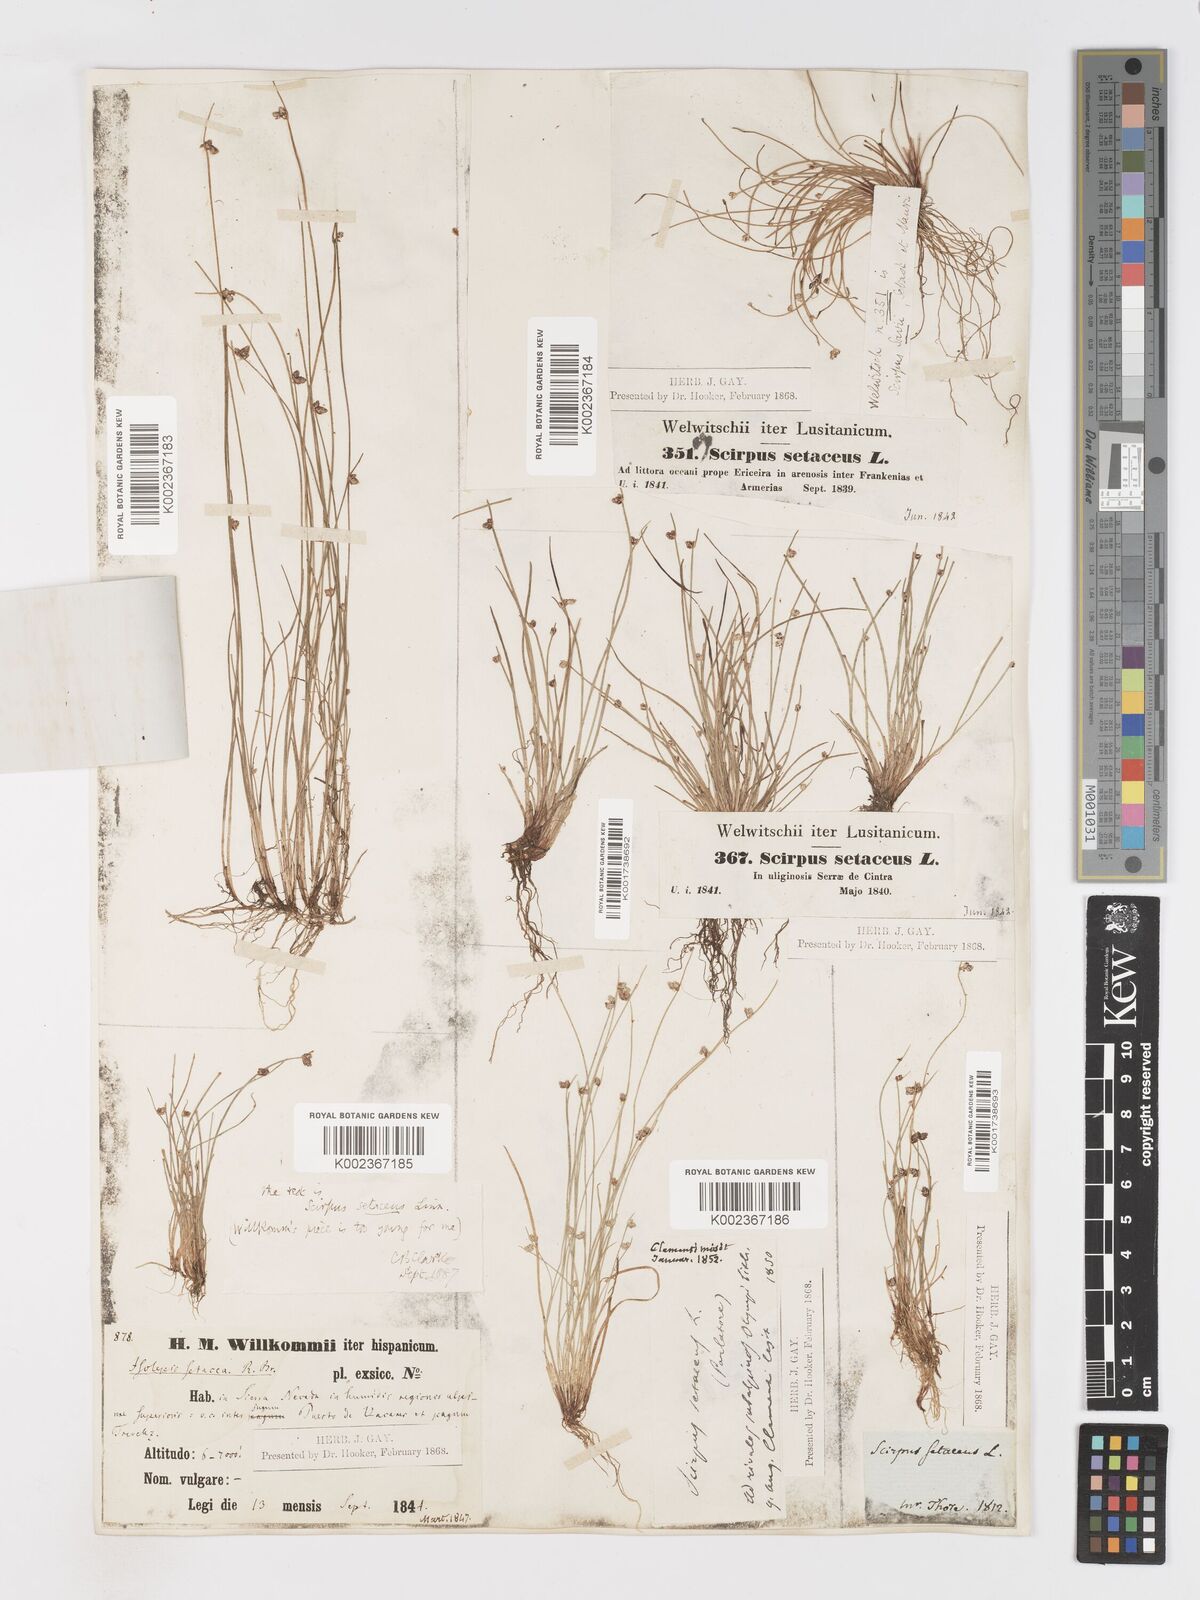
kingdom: Plantae
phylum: Tracheophyta
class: Liliopsida
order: Poales
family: Cyperaceae
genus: Isolepis
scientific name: Isolepis setacea
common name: Bristle club-rush
